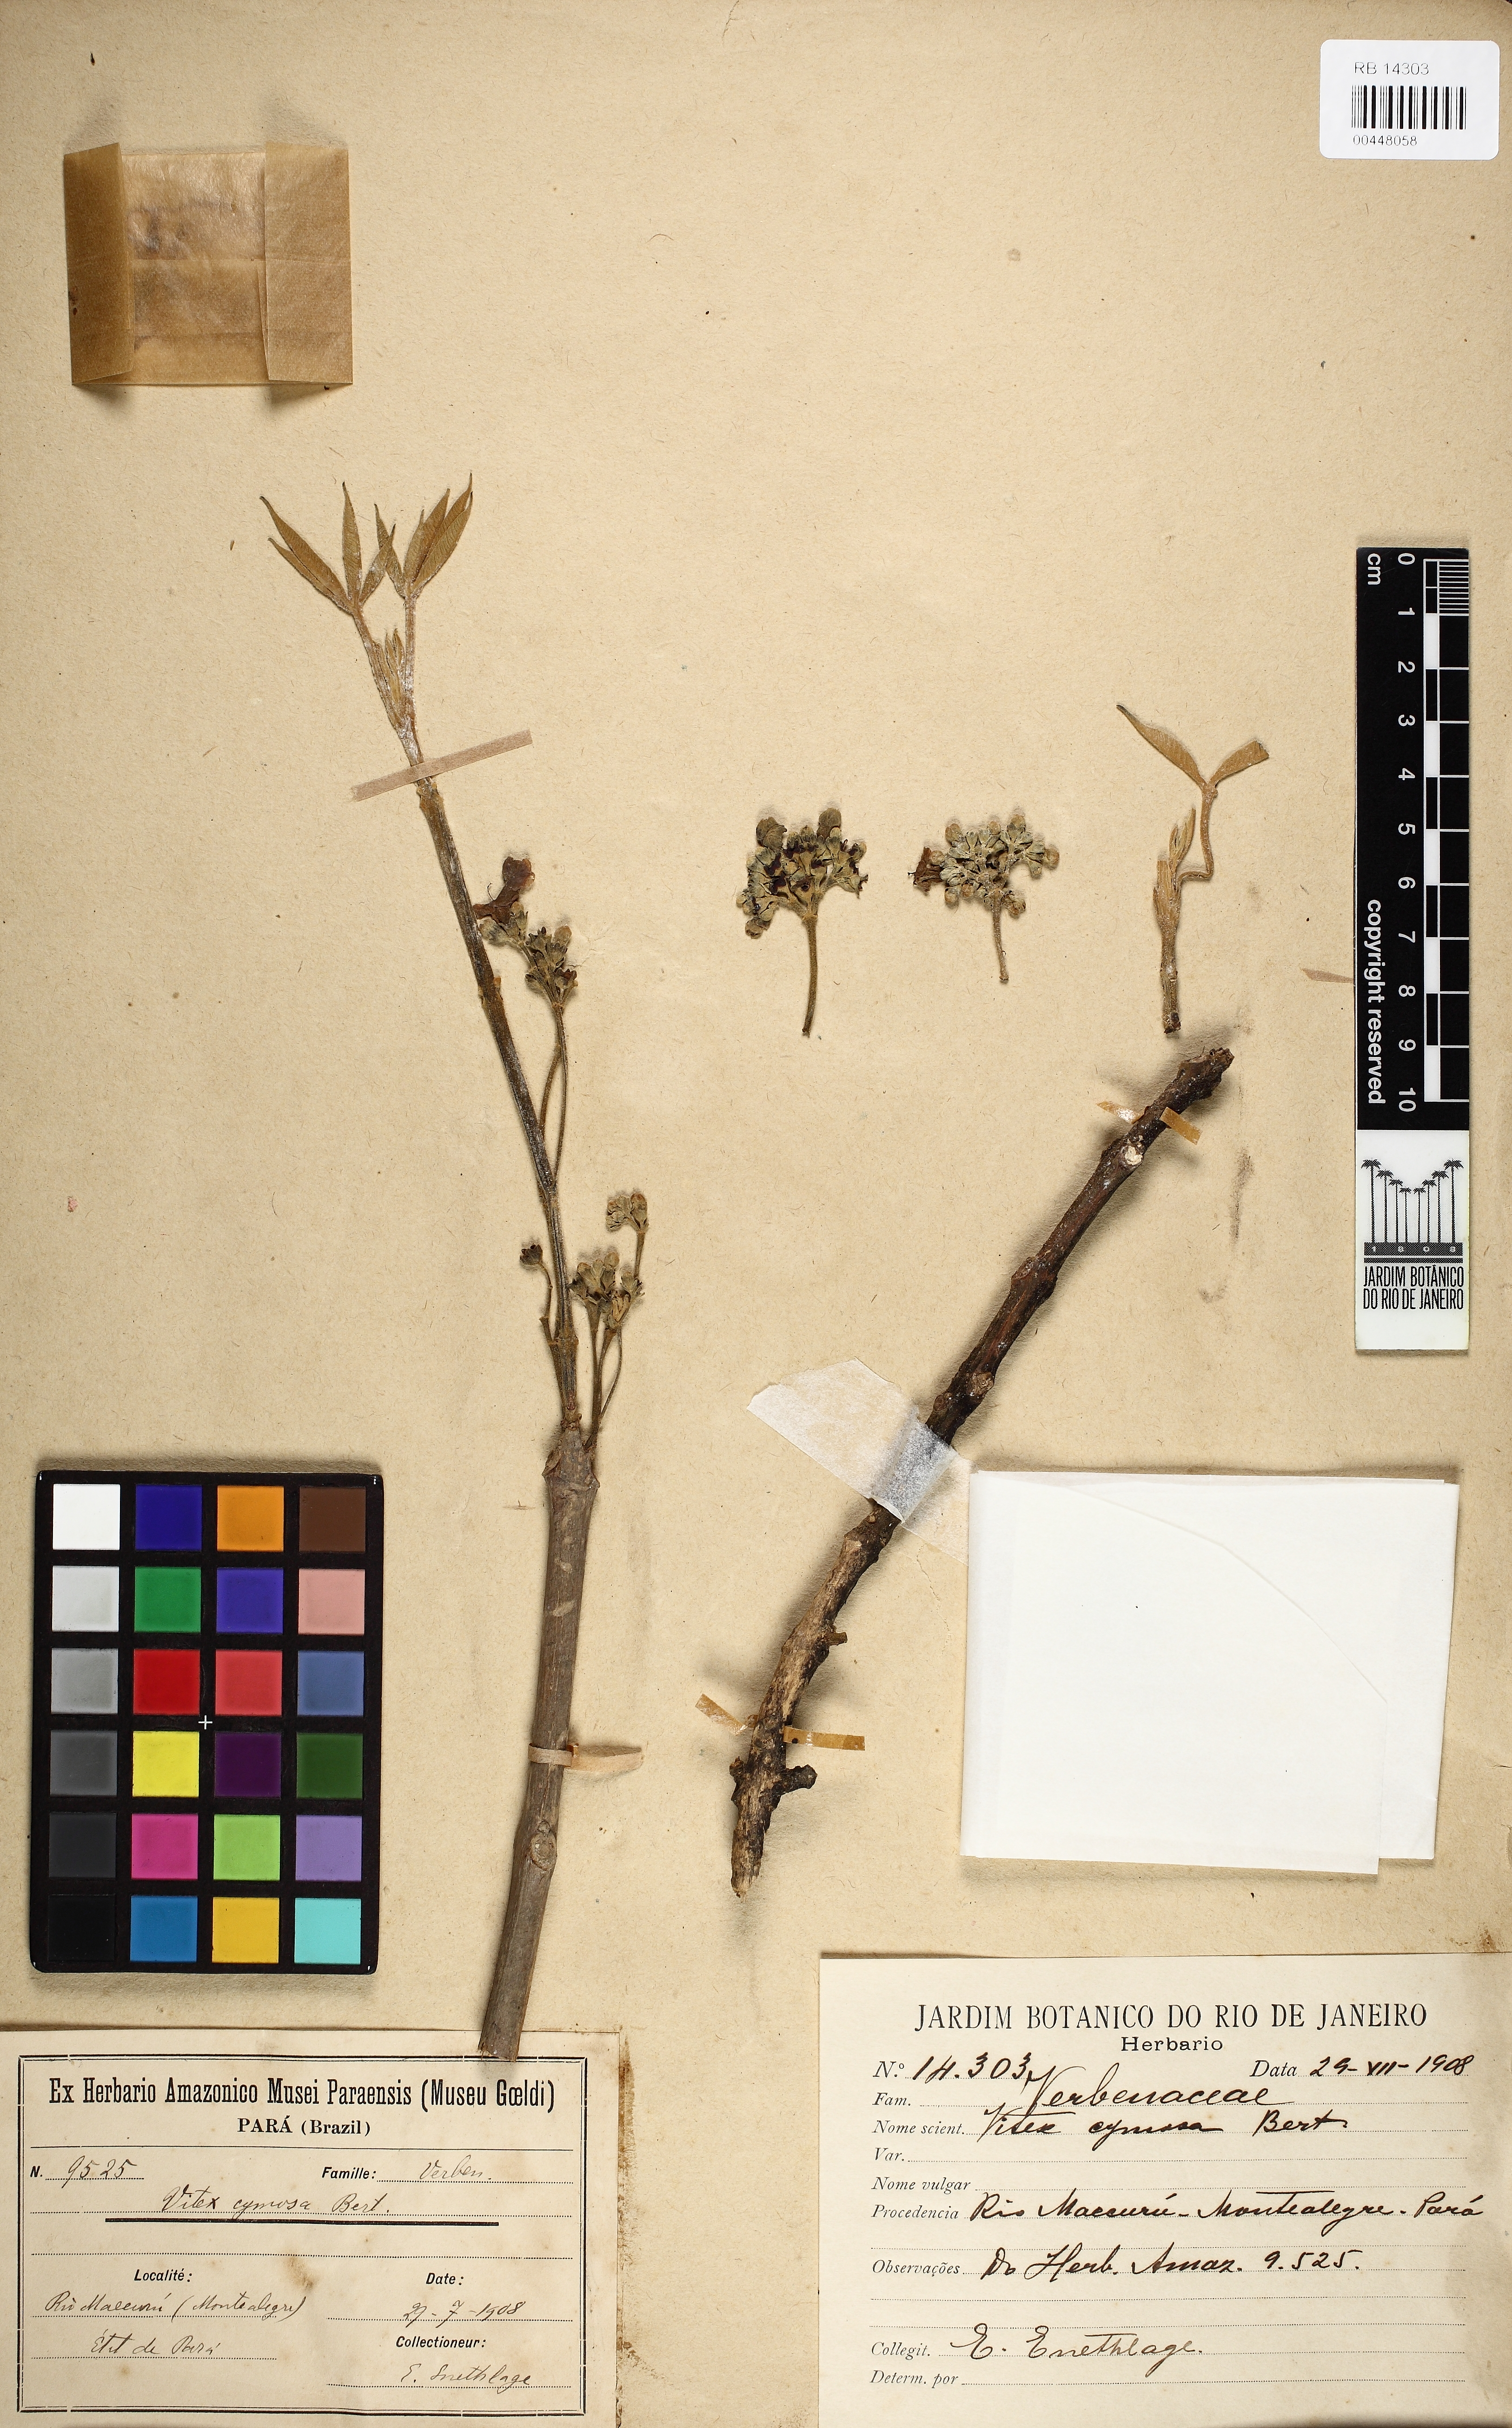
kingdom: Plantae
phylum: Tracheophyta
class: Magnoliopsida
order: Lamiales
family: Lamiaceae
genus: Vitex
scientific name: Vitex cymosa
